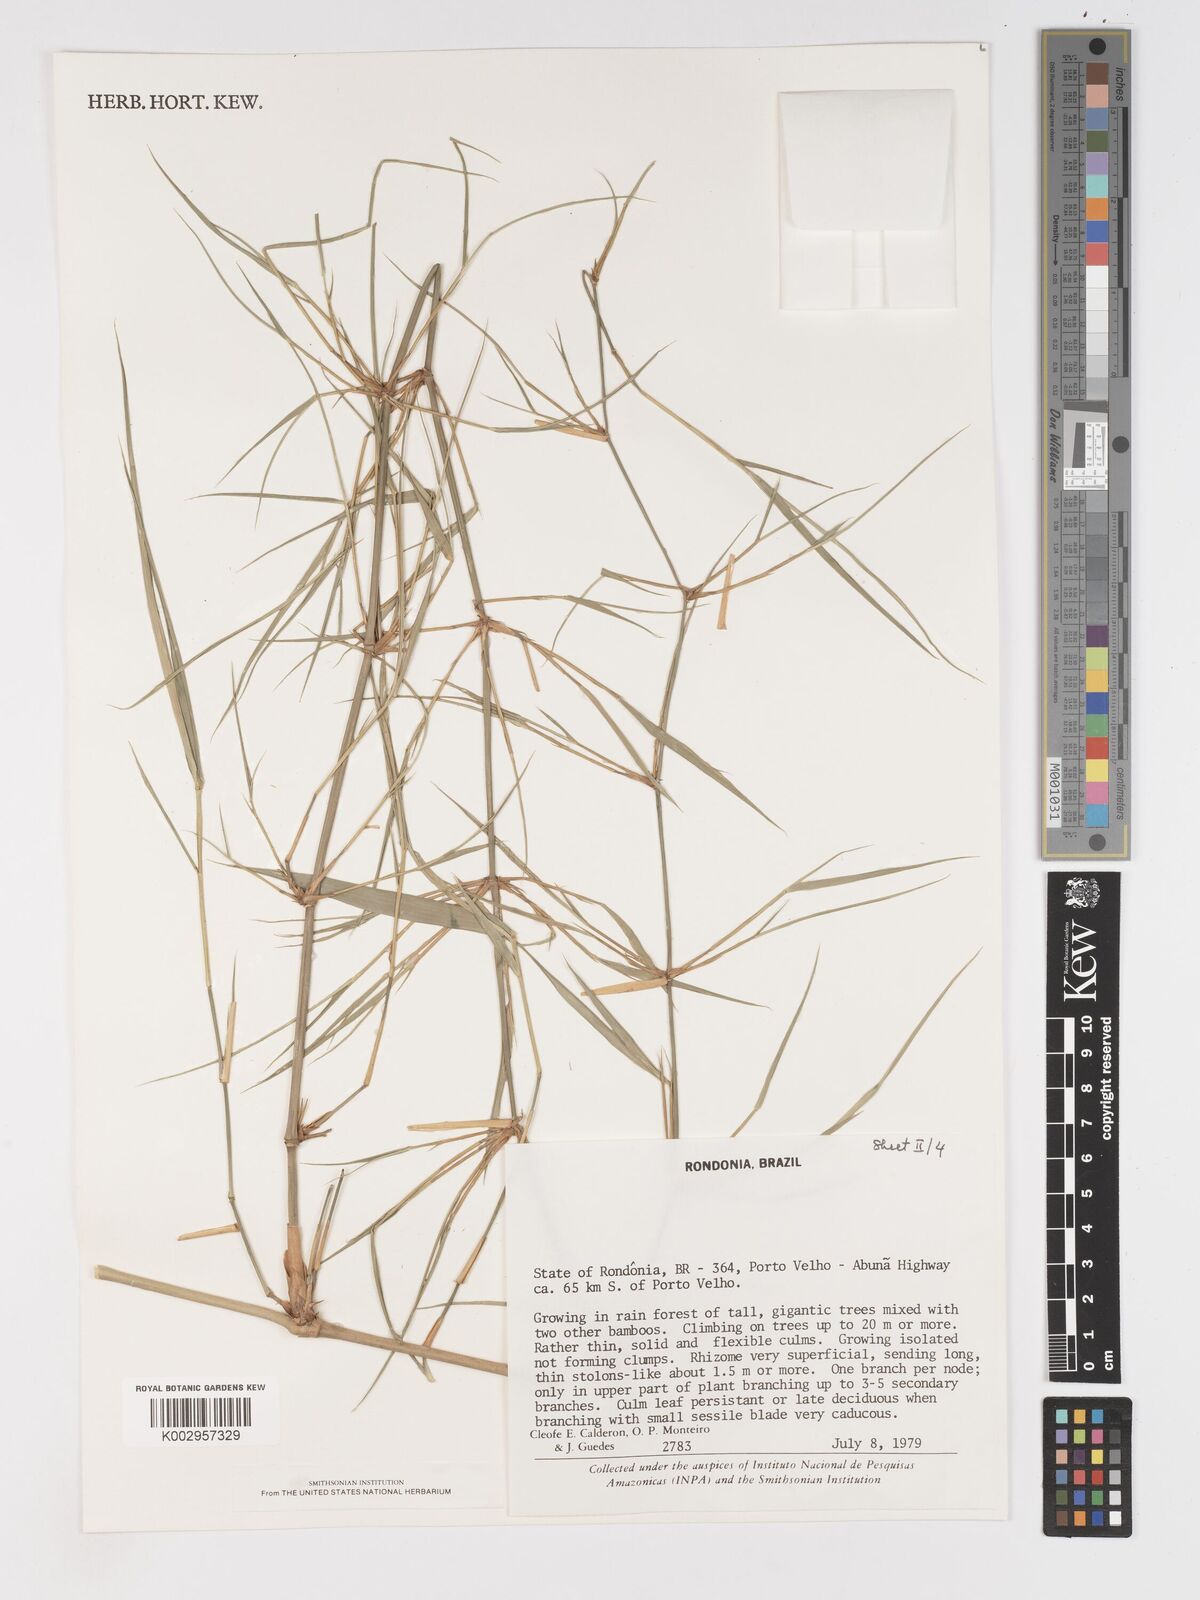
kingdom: Plantae
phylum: Tracheophyta
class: Liliopsida
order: Poales
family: Poaceae
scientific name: Poaceae
